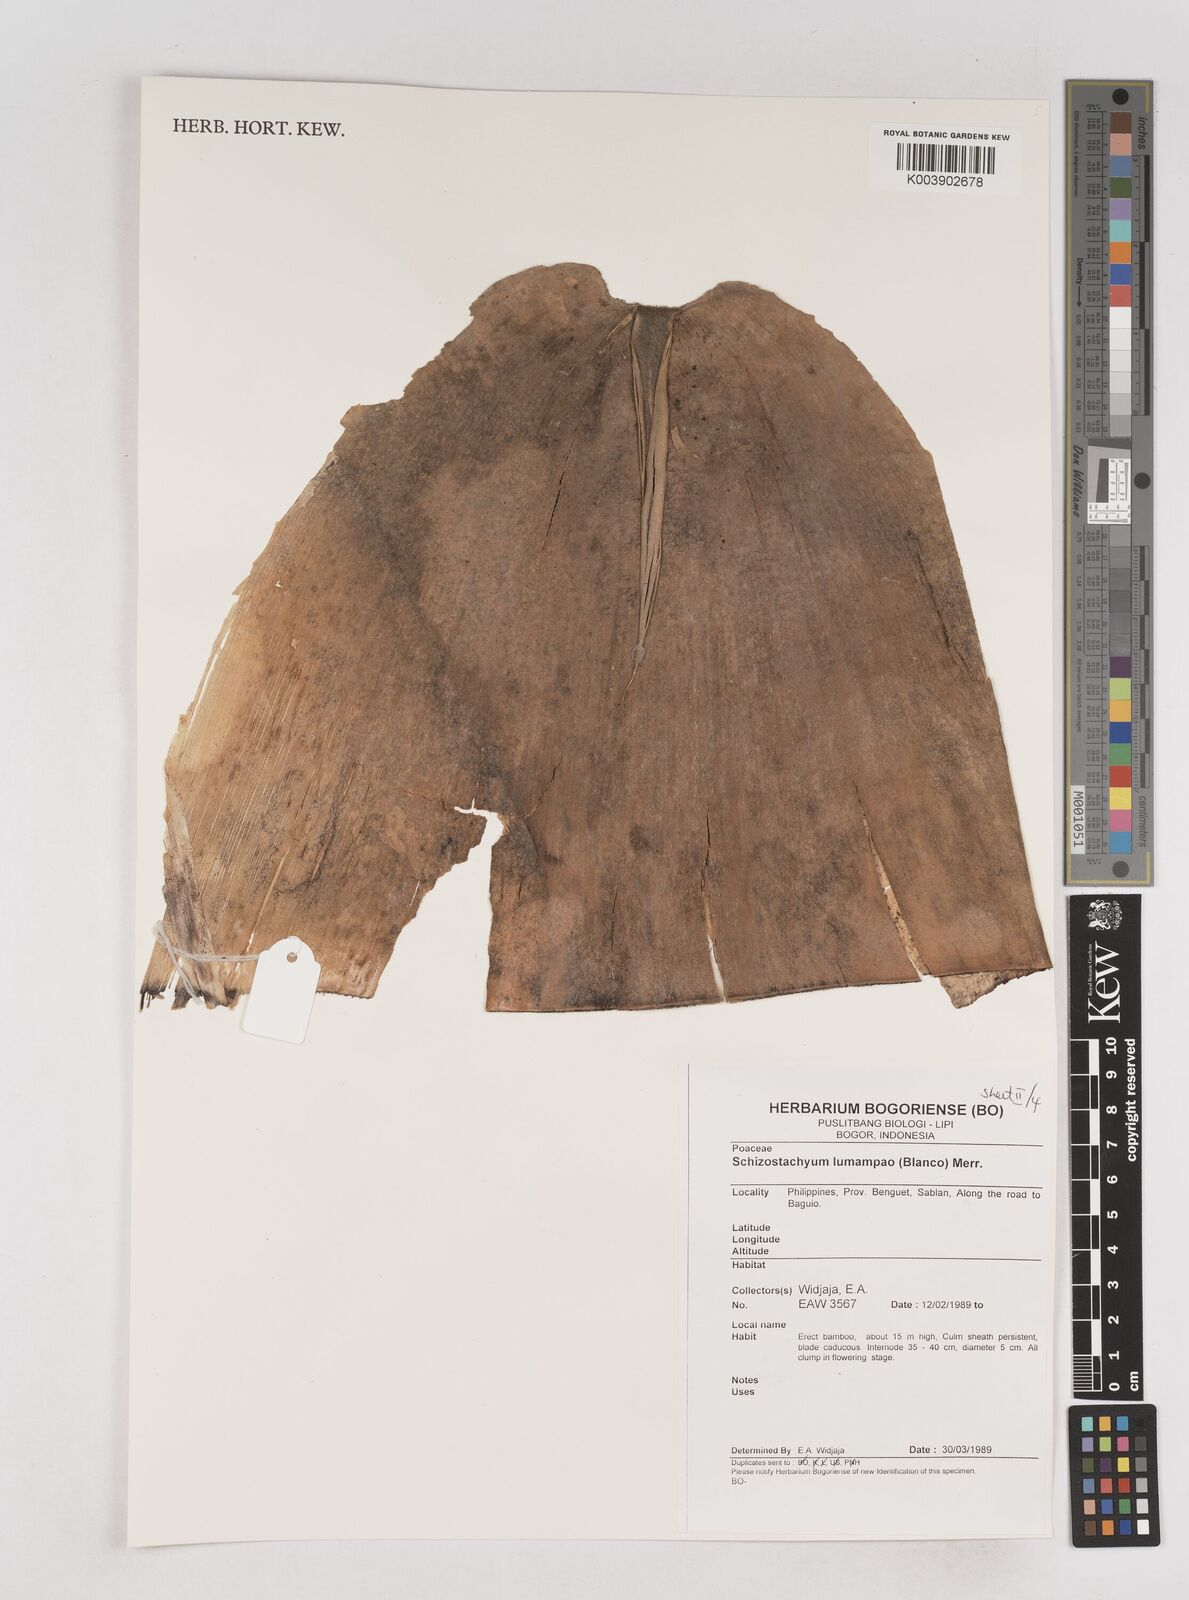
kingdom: Plantae
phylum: Tracheophyta
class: Liliopsida
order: Poales
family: Poaceae
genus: Schizostachyum
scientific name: Schizostachyum lumampao
